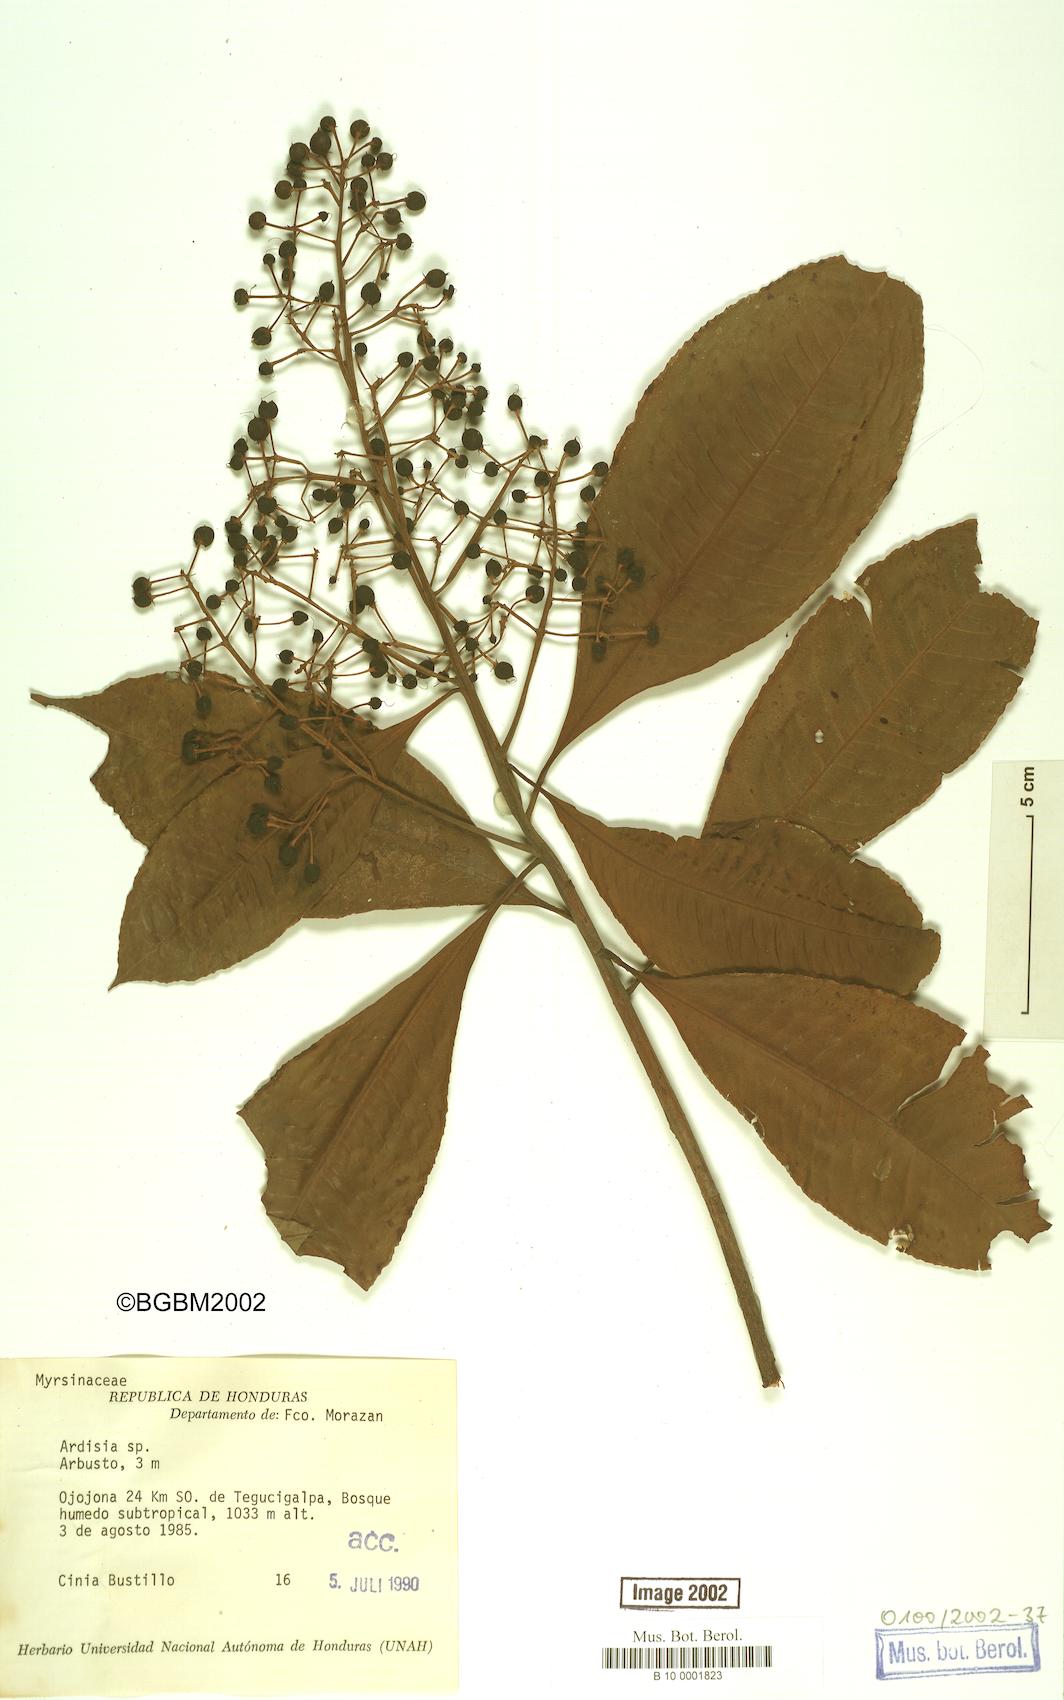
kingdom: Plantae
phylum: Tracheophyta
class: Magnoliopsida
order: Ericales
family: Primulaceae
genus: Ardisia
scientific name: Ardisia
